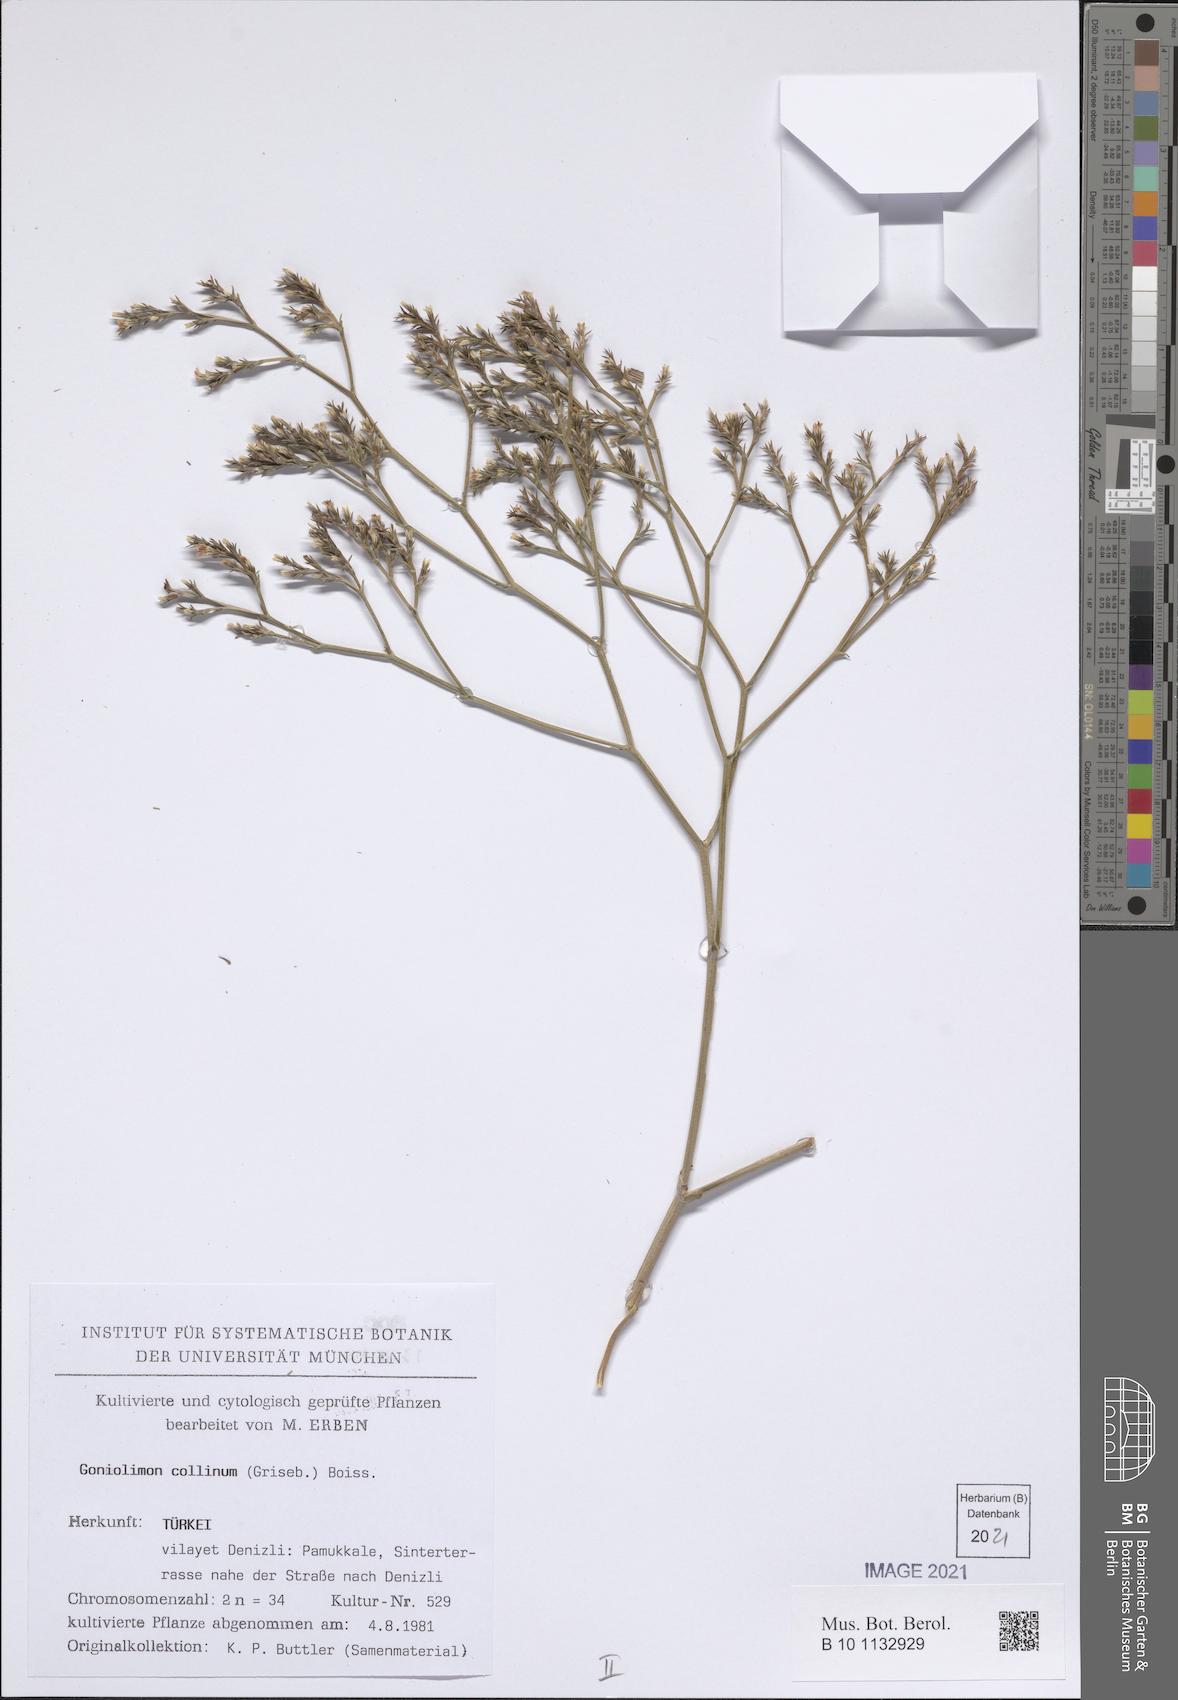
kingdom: Plantae
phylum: Tracheophyta
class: Magnoliopsida
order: Caryophyllales
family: Plumbaginaceae
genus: Goniolimon
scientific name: Goniolimon incanum
